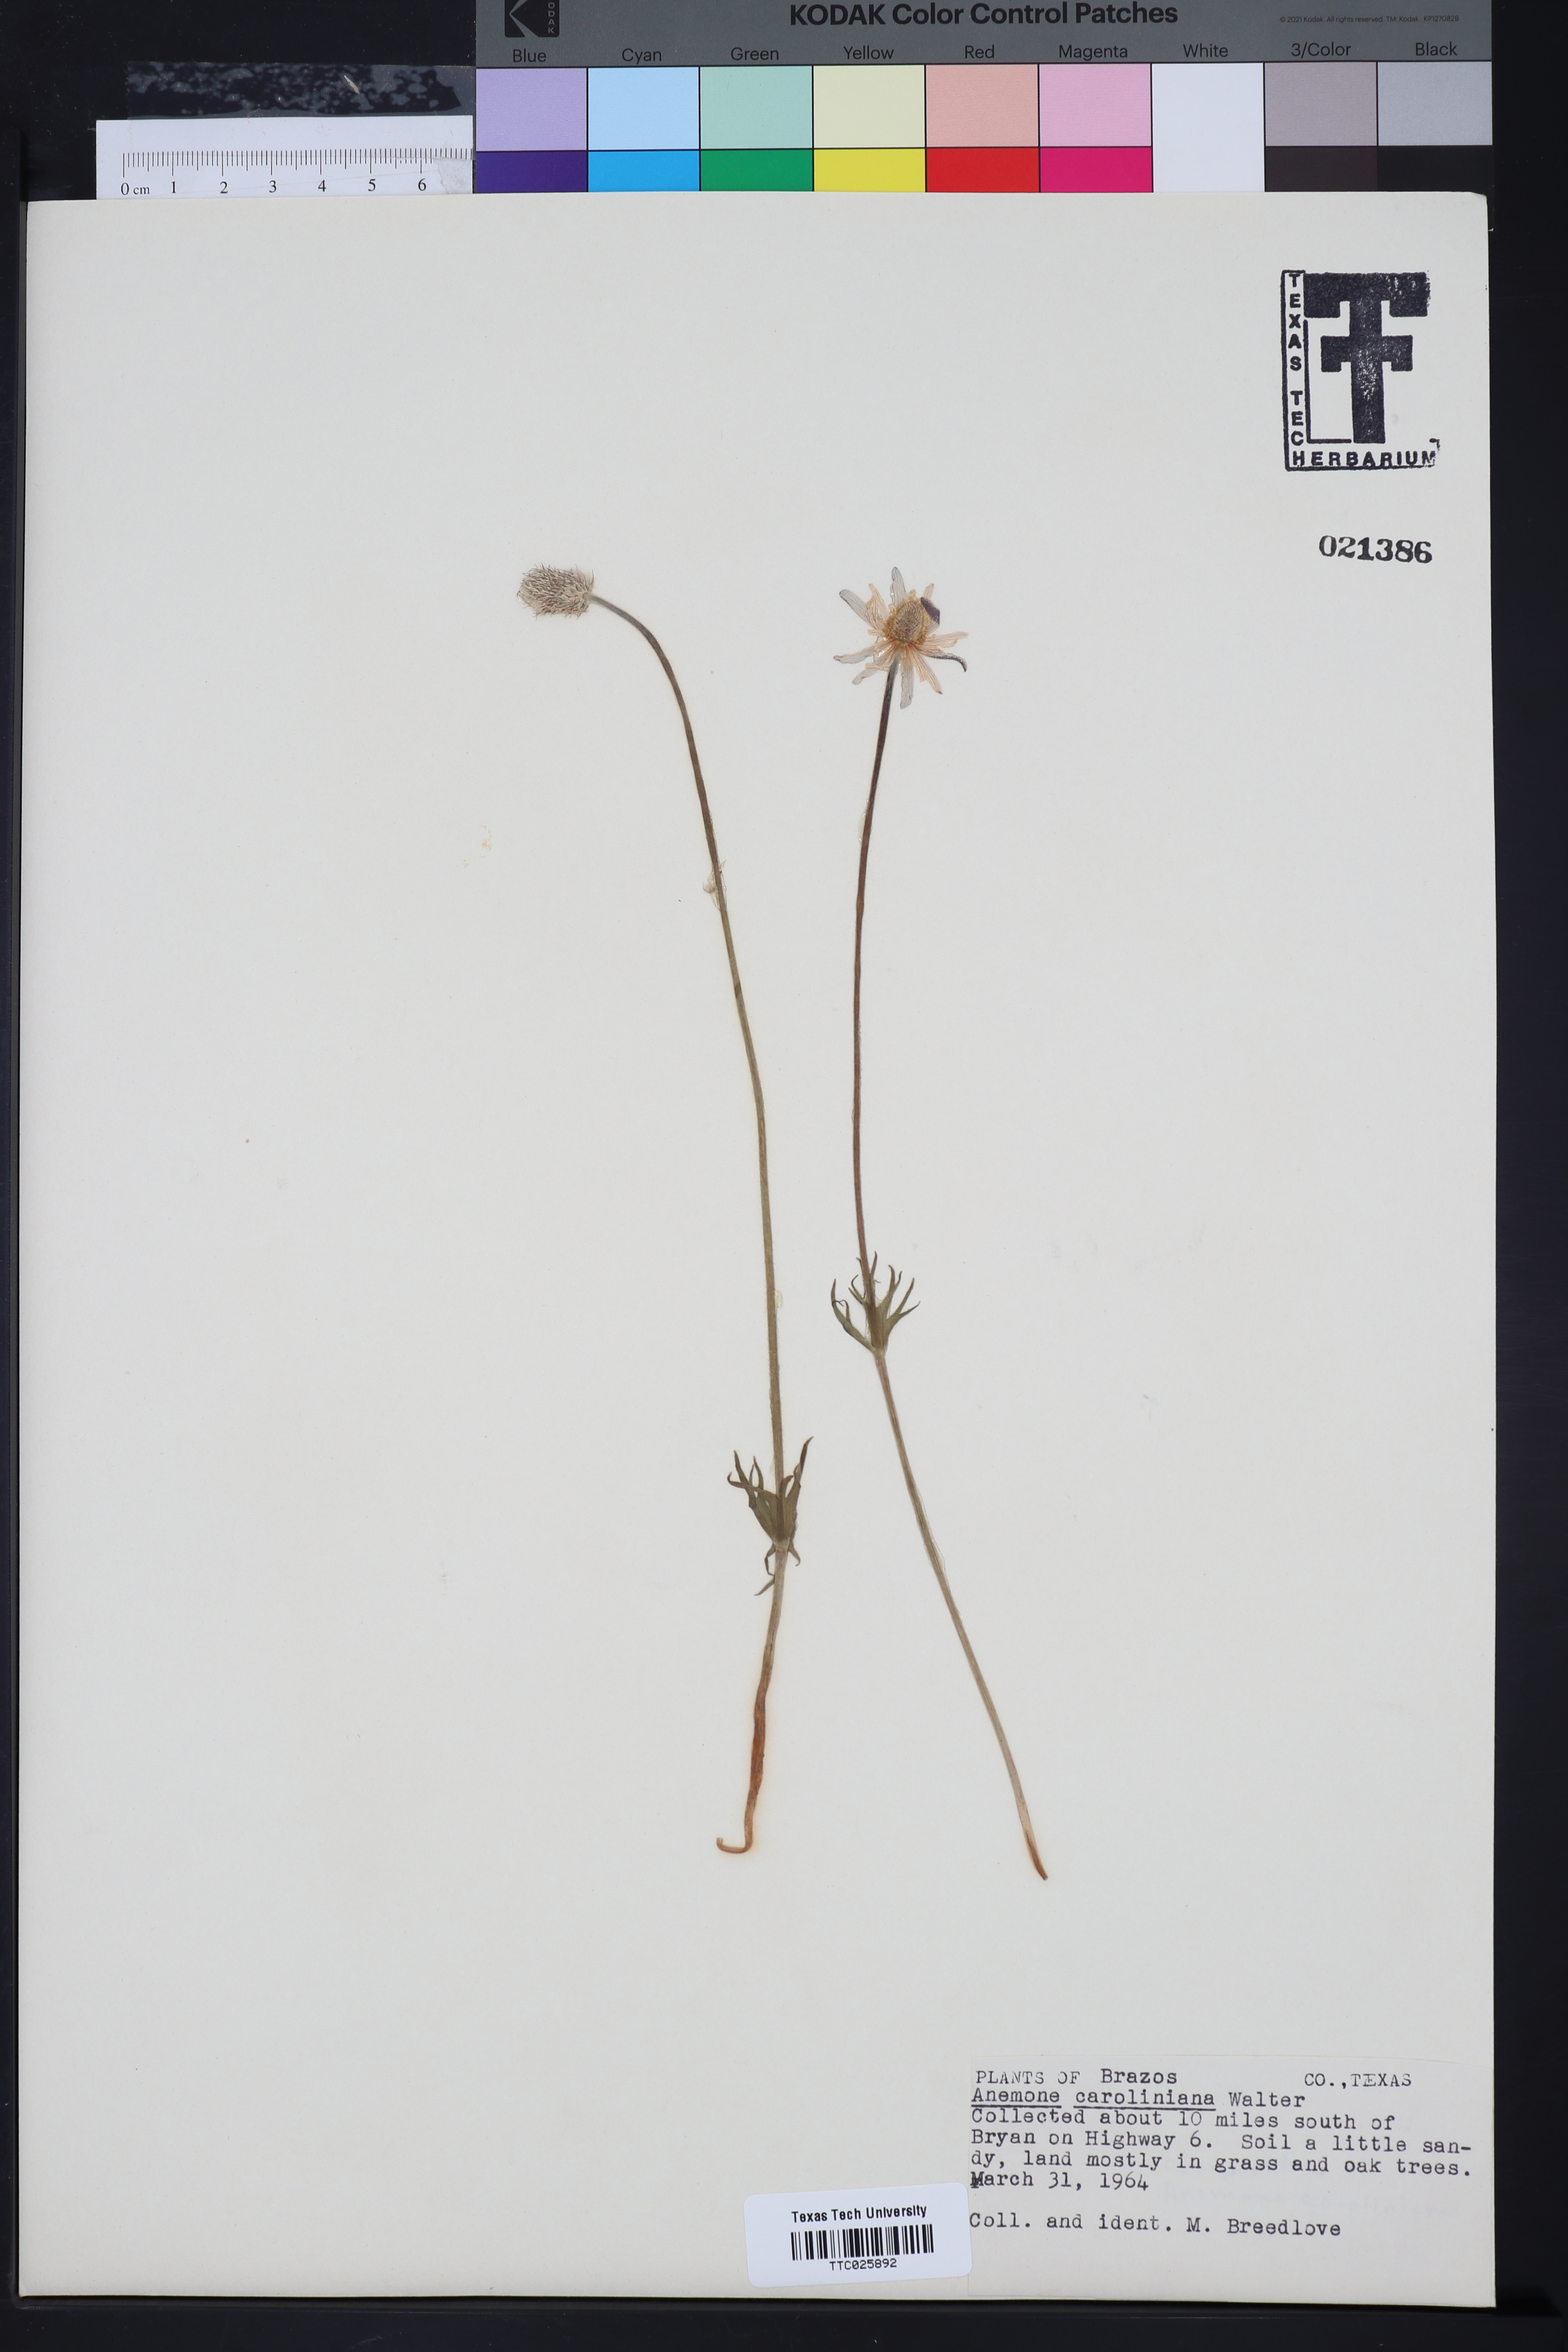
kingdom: Plantae
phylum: Tracheophyta
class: Magnoliopsida
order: Ranunculales
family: Ranunculaceae
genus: Anemone
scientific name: Anemone caroliniana
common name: Carolina anemone
